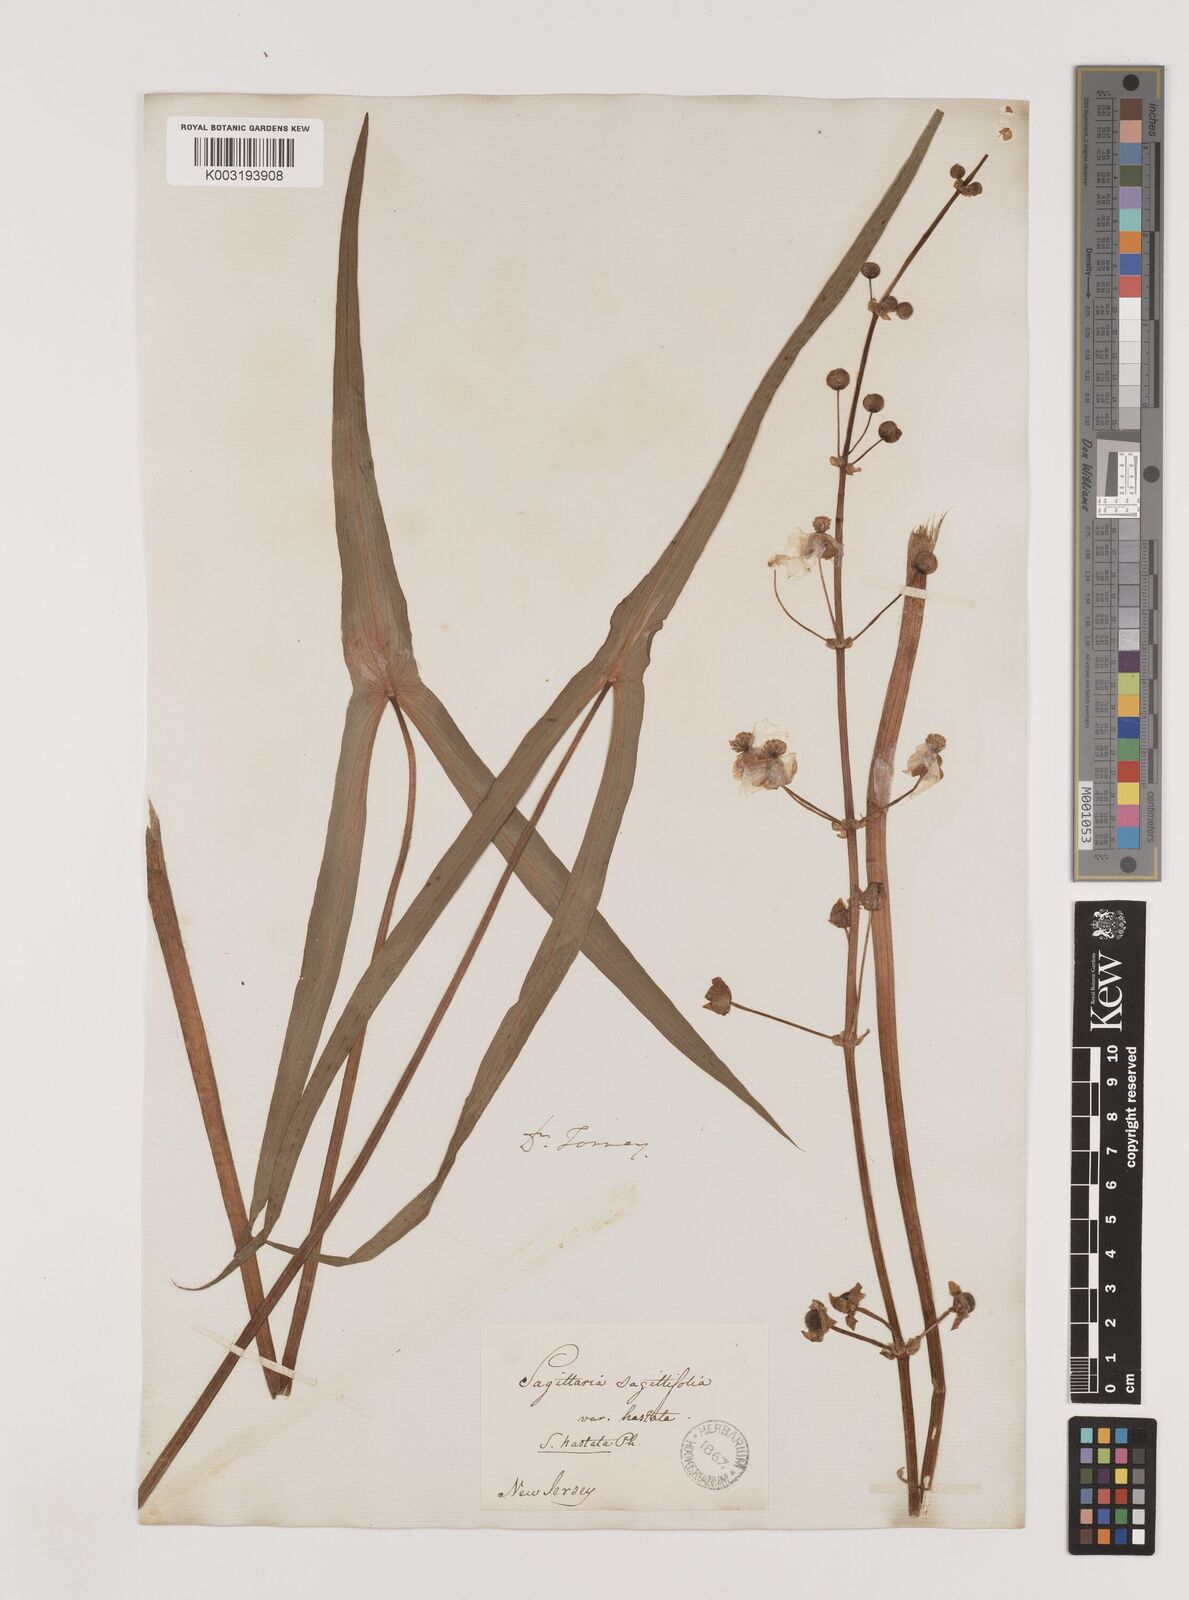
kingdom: Plantae
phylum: Tracheophyta
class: Liliopsida
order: Alismatales
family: Alismataceae
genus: Sagittaria
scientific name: Sagittaria latifolia
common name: Duck-potato
